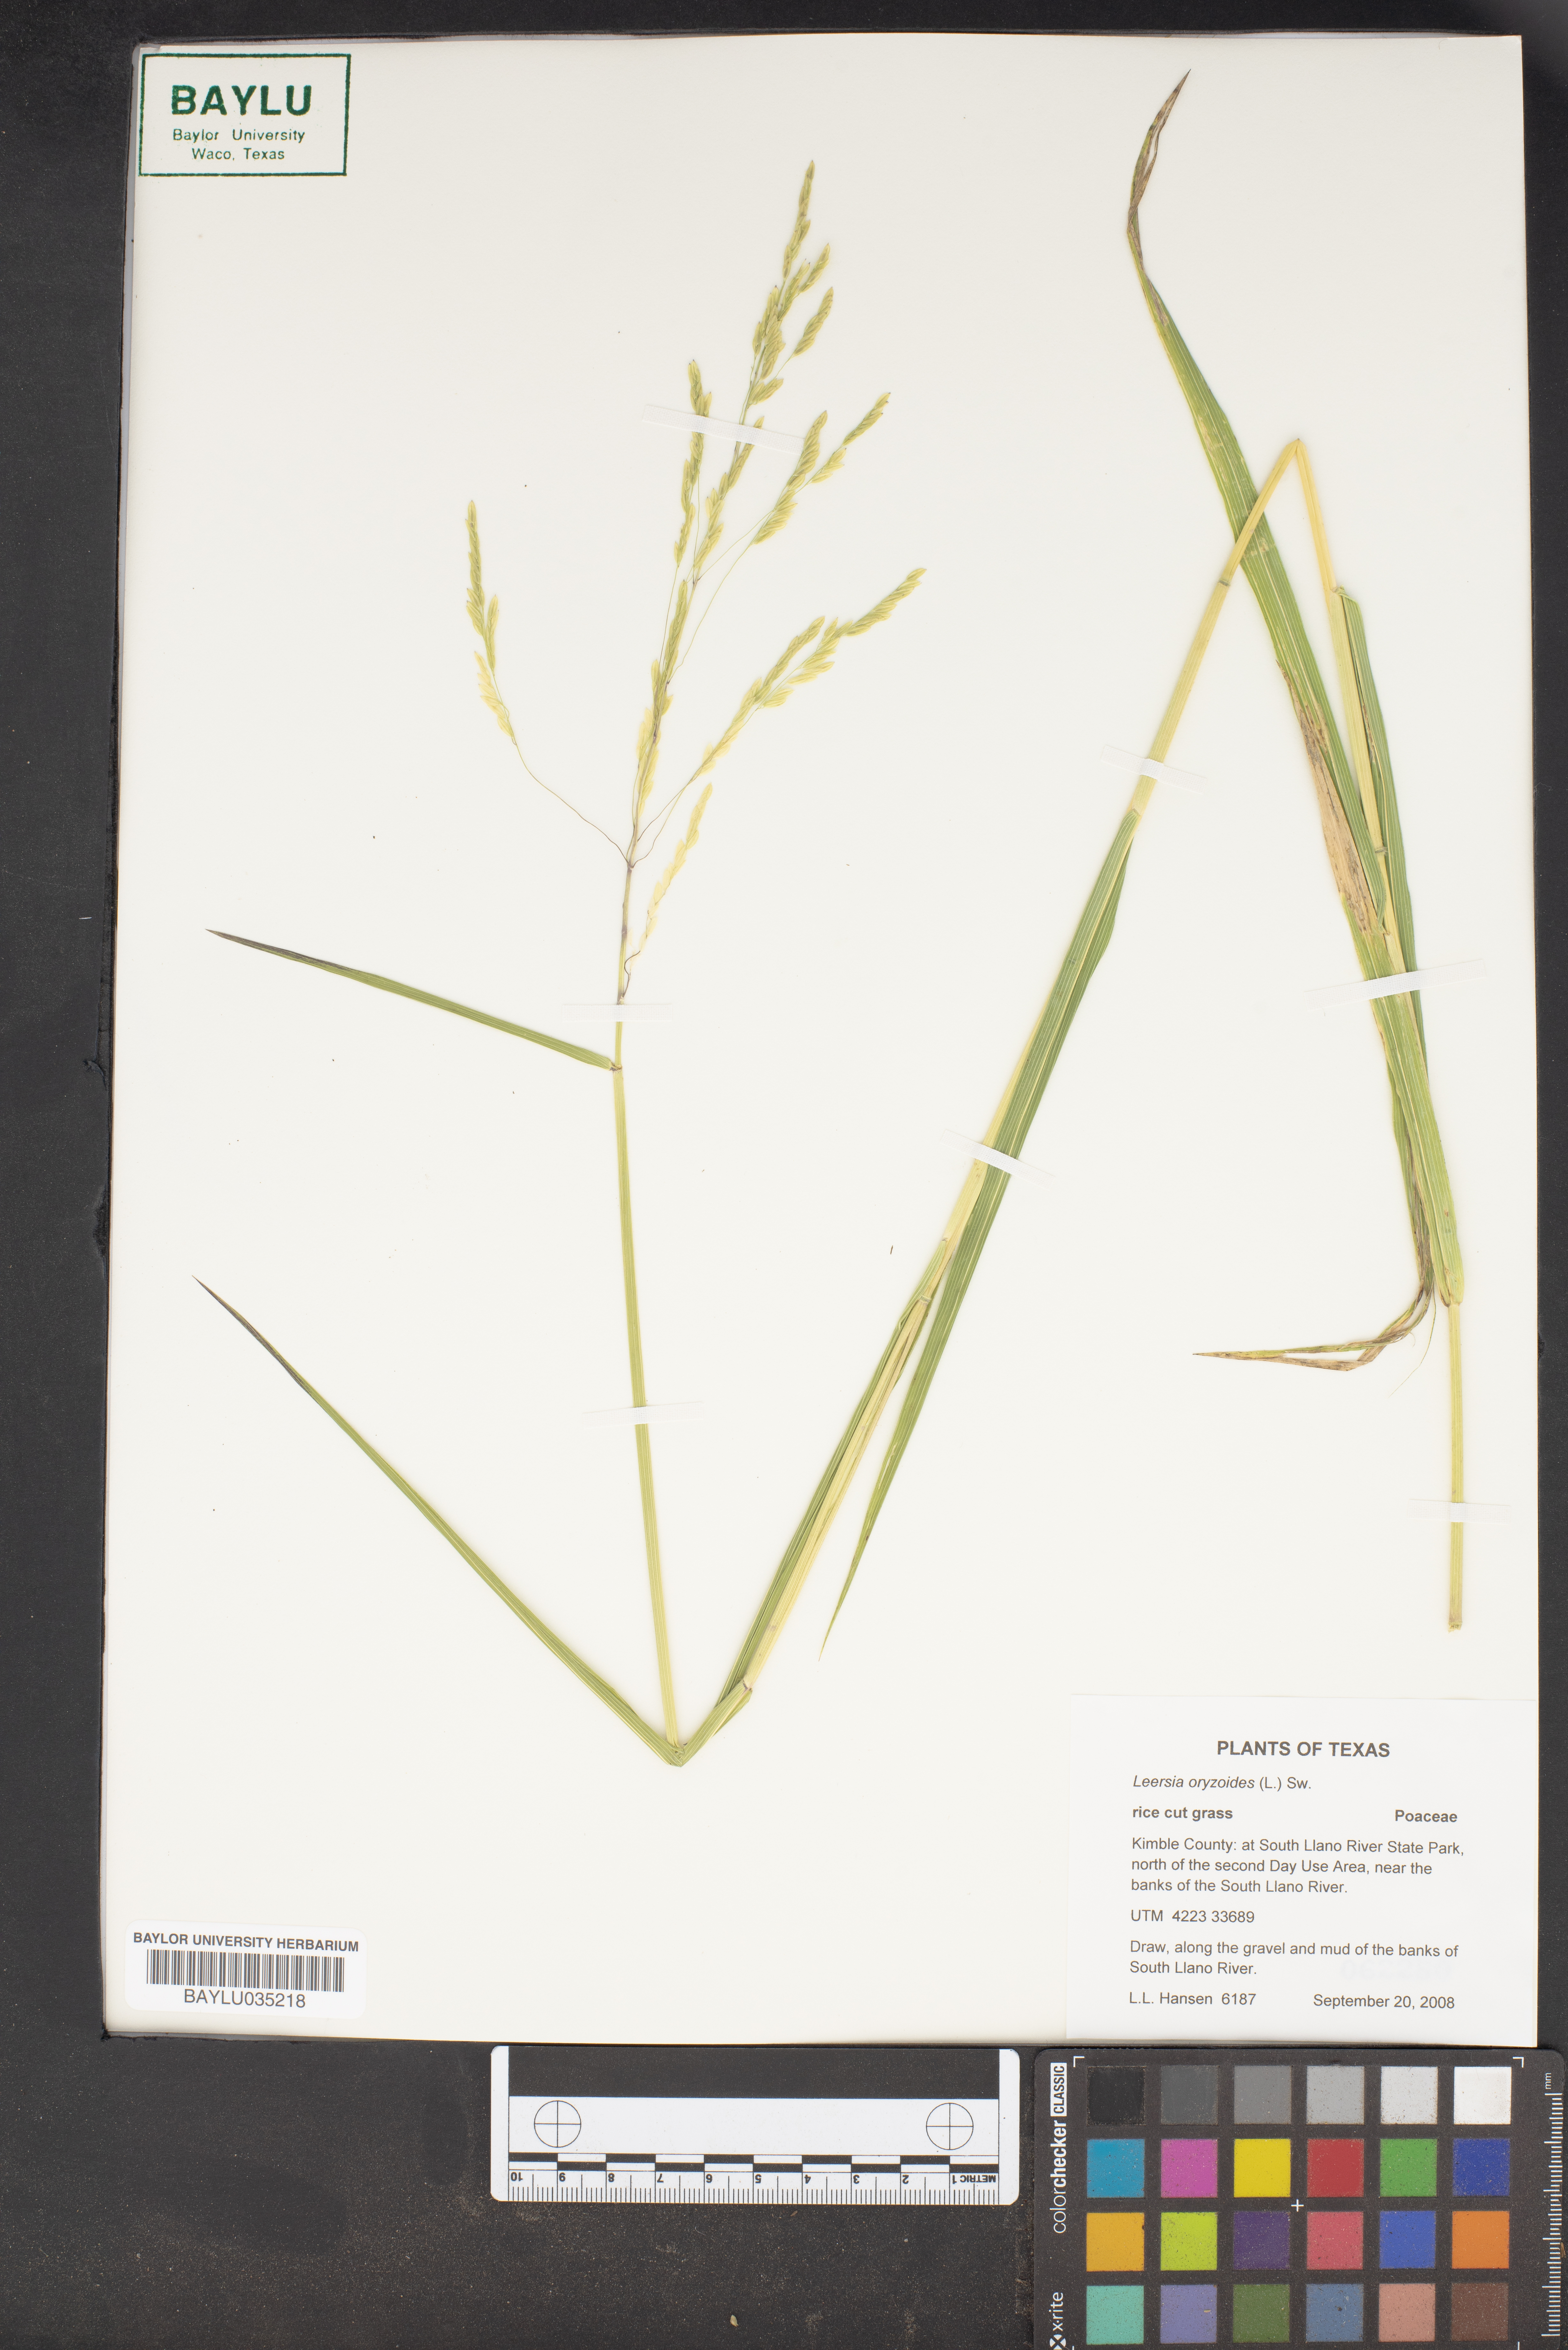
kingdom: Plantae
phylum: Tracheophyta
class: Liliopsida
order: Poales
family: Poaceae
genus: Leersia
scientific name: Leersia oryzoides
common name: Cut-grass
